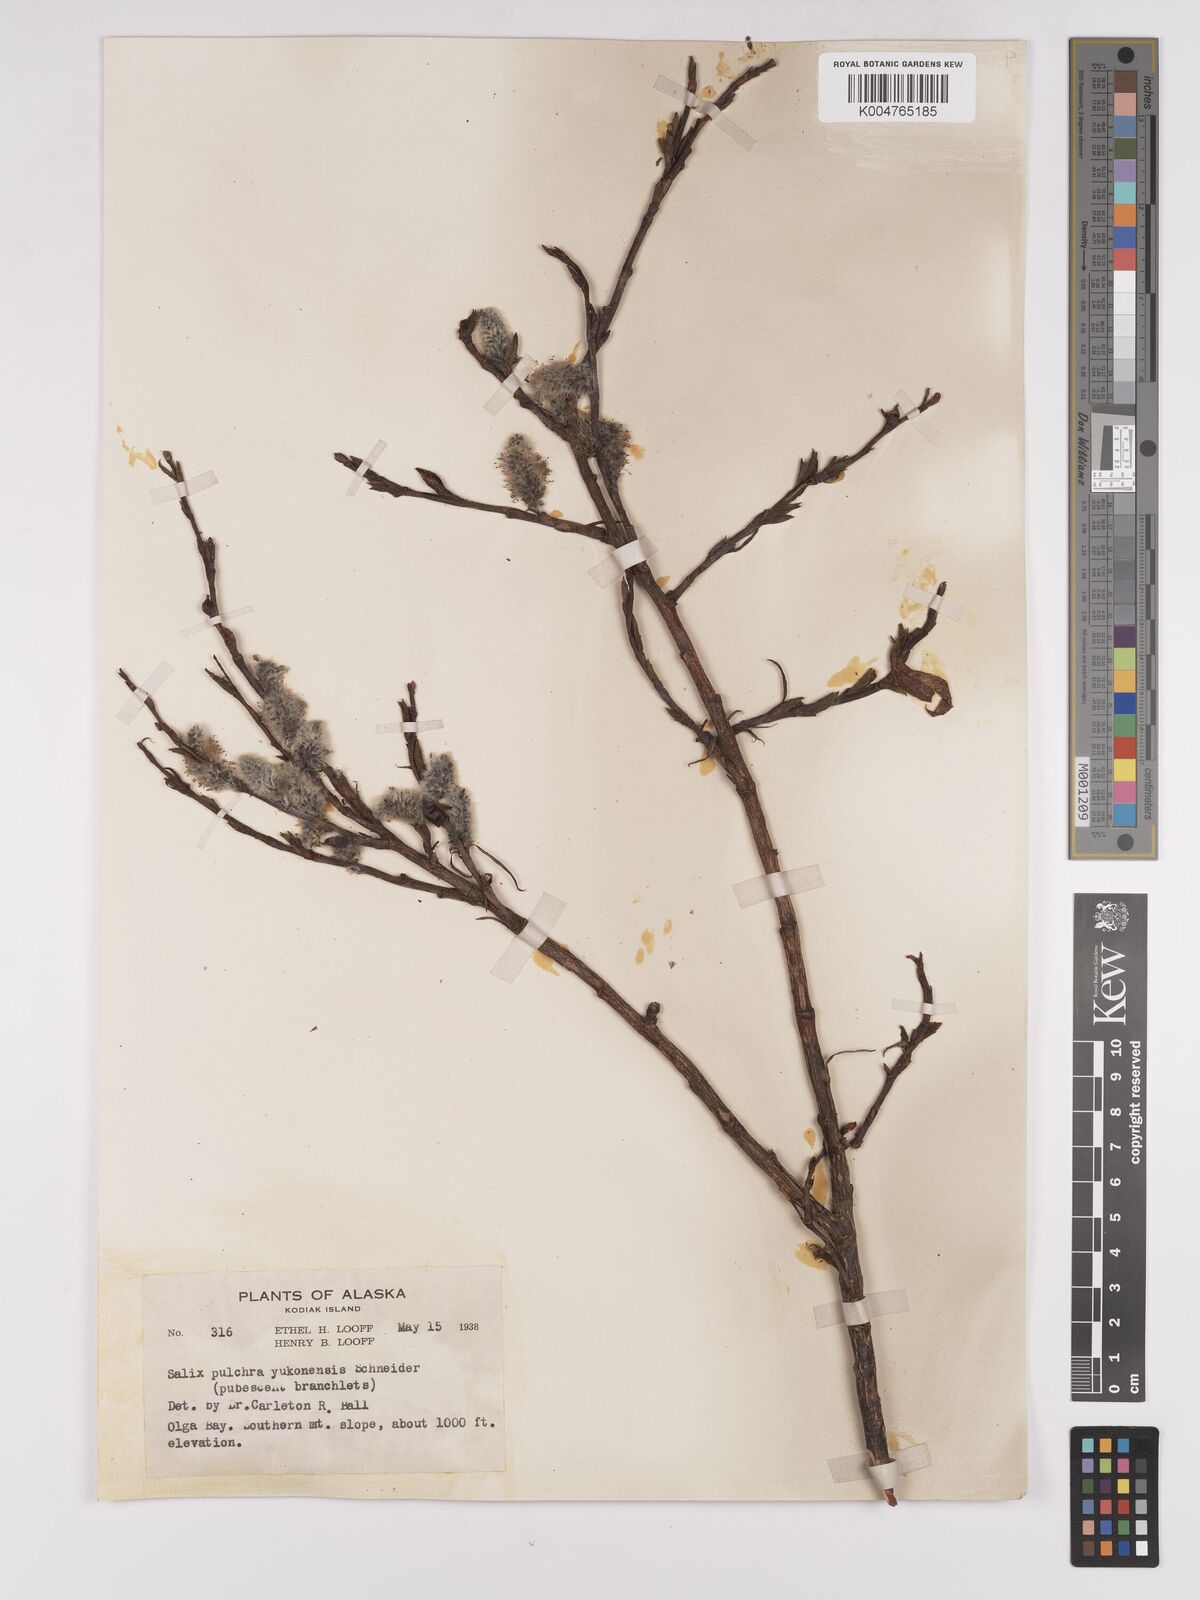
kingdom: Plantae
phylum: Tracheophyta
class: Magnoliopsida
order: Malpighiales
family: Salicaceae
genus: Salix
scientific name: Salix pulchra
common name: Diamond-leaved willow
